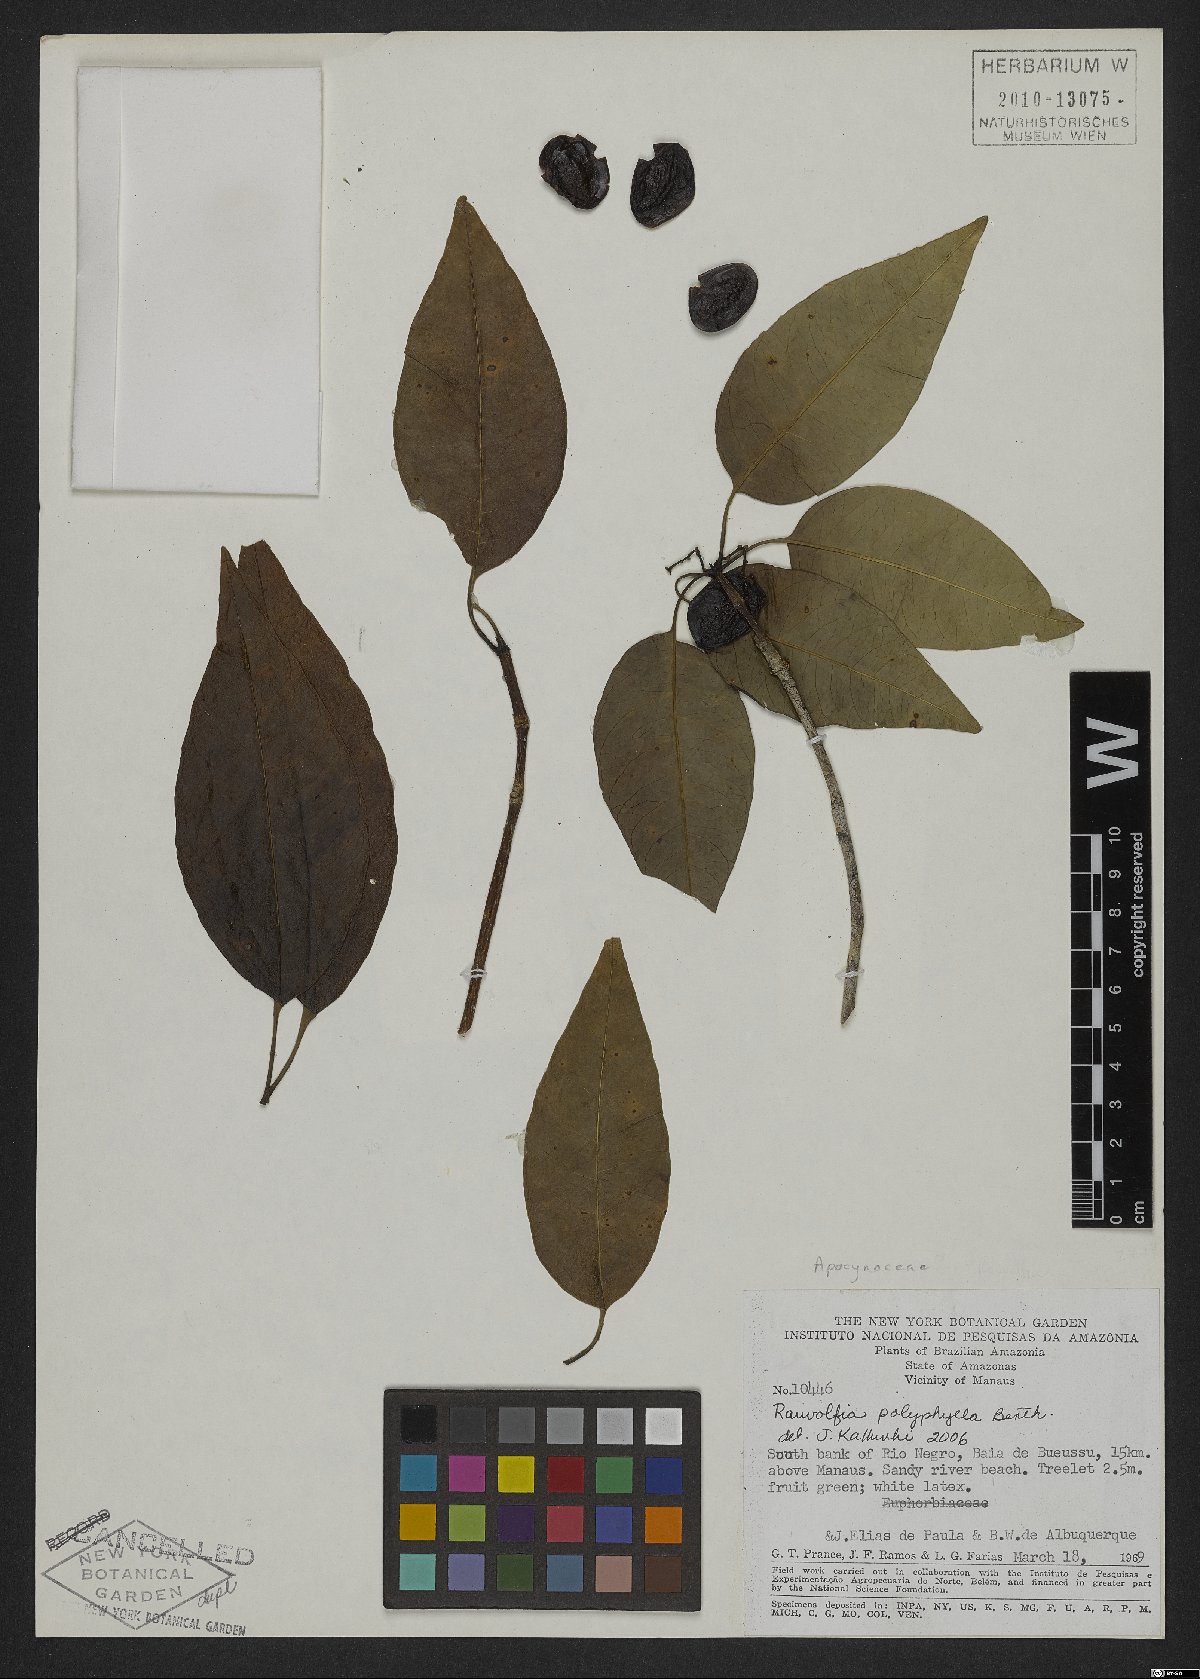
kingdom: Plantae
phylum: Tracheophyta
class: Magnoliopsida
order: Gentianales
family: Apocynaceae
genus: Rauvolfia
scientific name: Rauvolfia polyphylla
